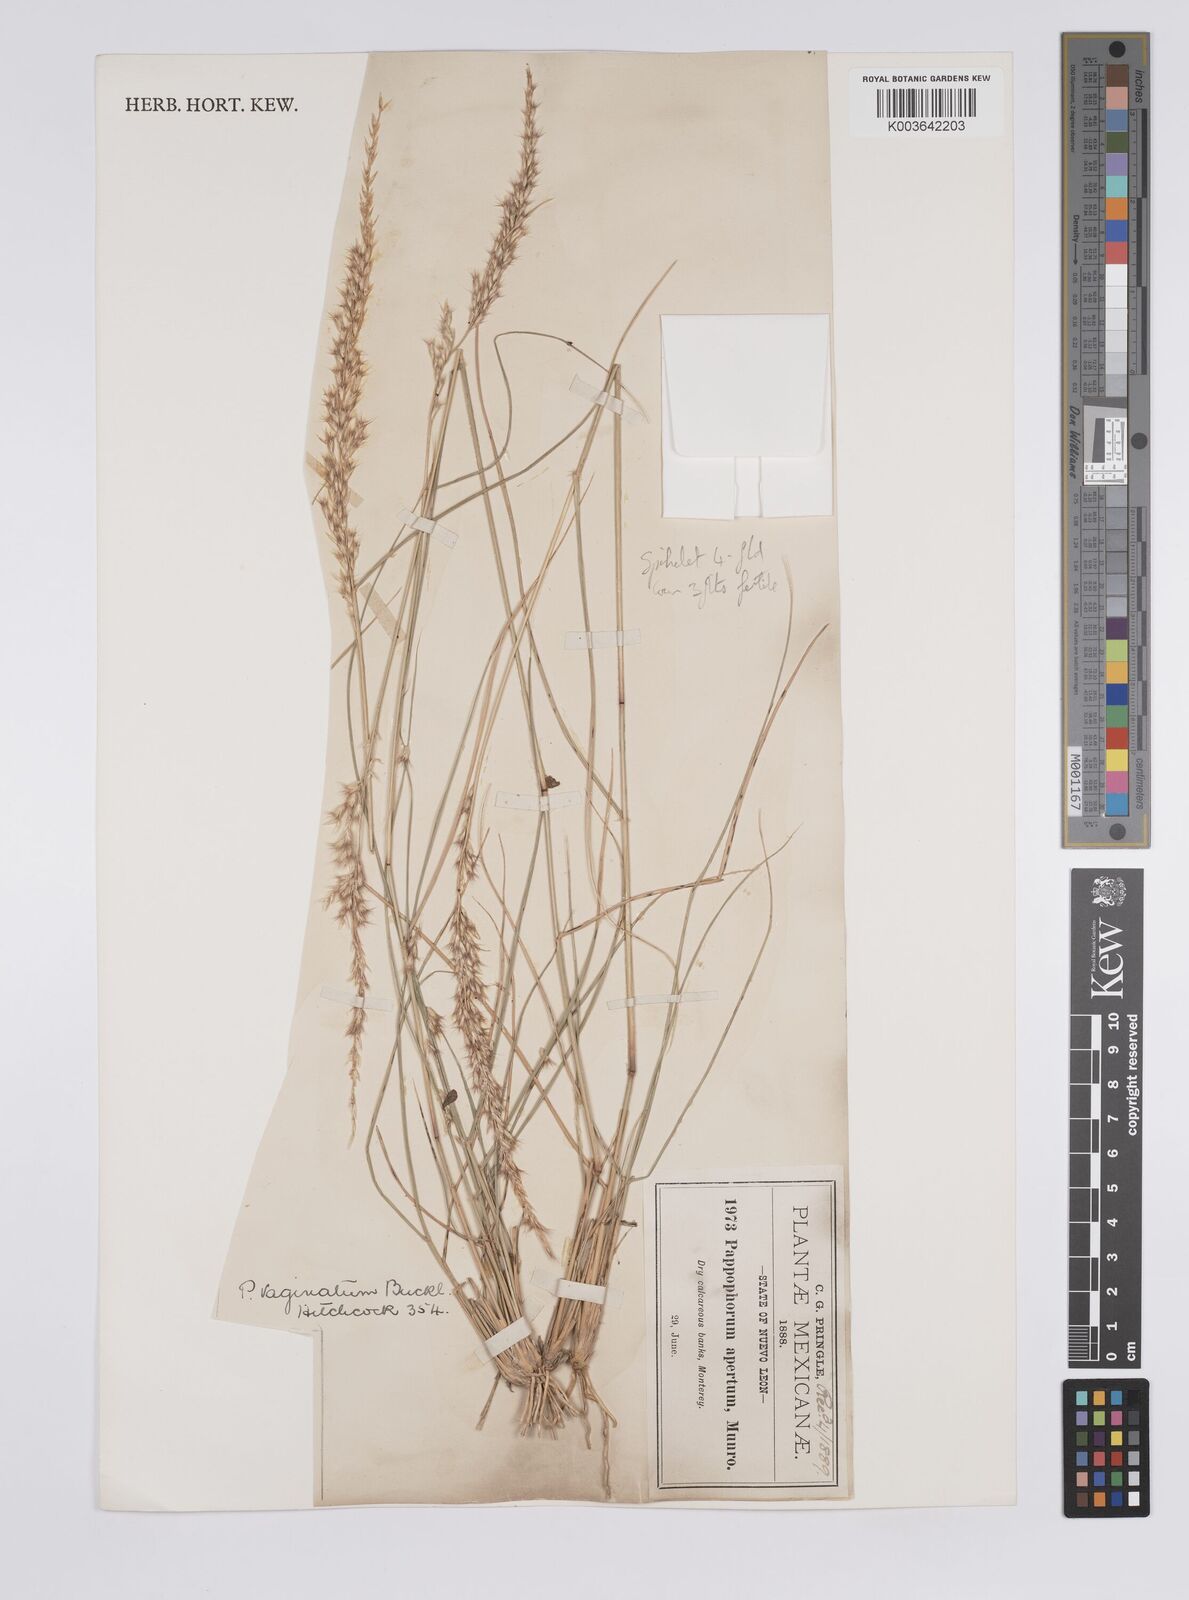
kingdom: Plantae
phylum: Tracheophyta
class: Liliopsida
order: Poales
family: Poaceae
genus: Pappophorum
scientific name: Pappophorum bicolor
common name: Pink pappus grass
